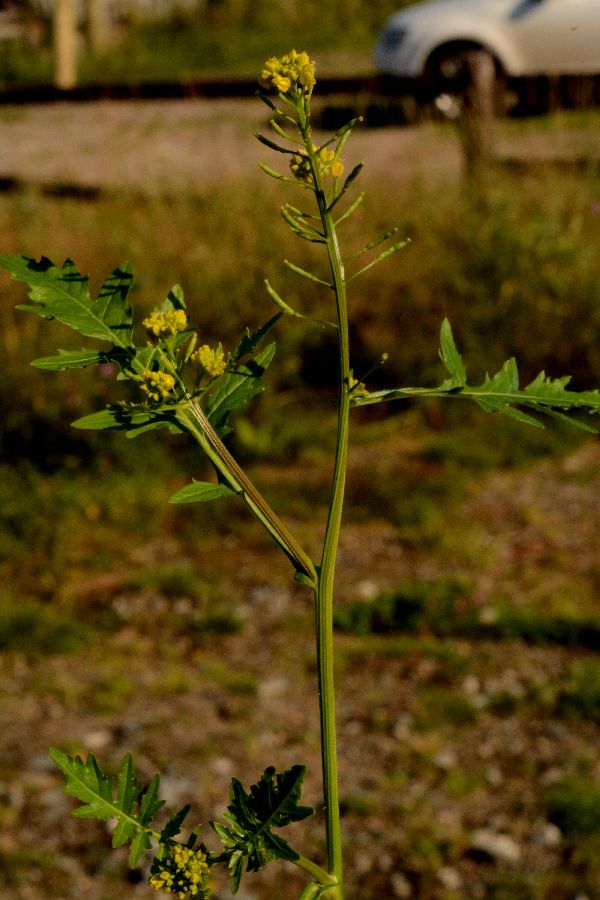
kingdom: Plantae
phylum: Tracheophyta
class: Magnoliopsida
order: Brassicales
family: Brassicaceae
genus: Rorippa
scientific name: Rorippa palustris
